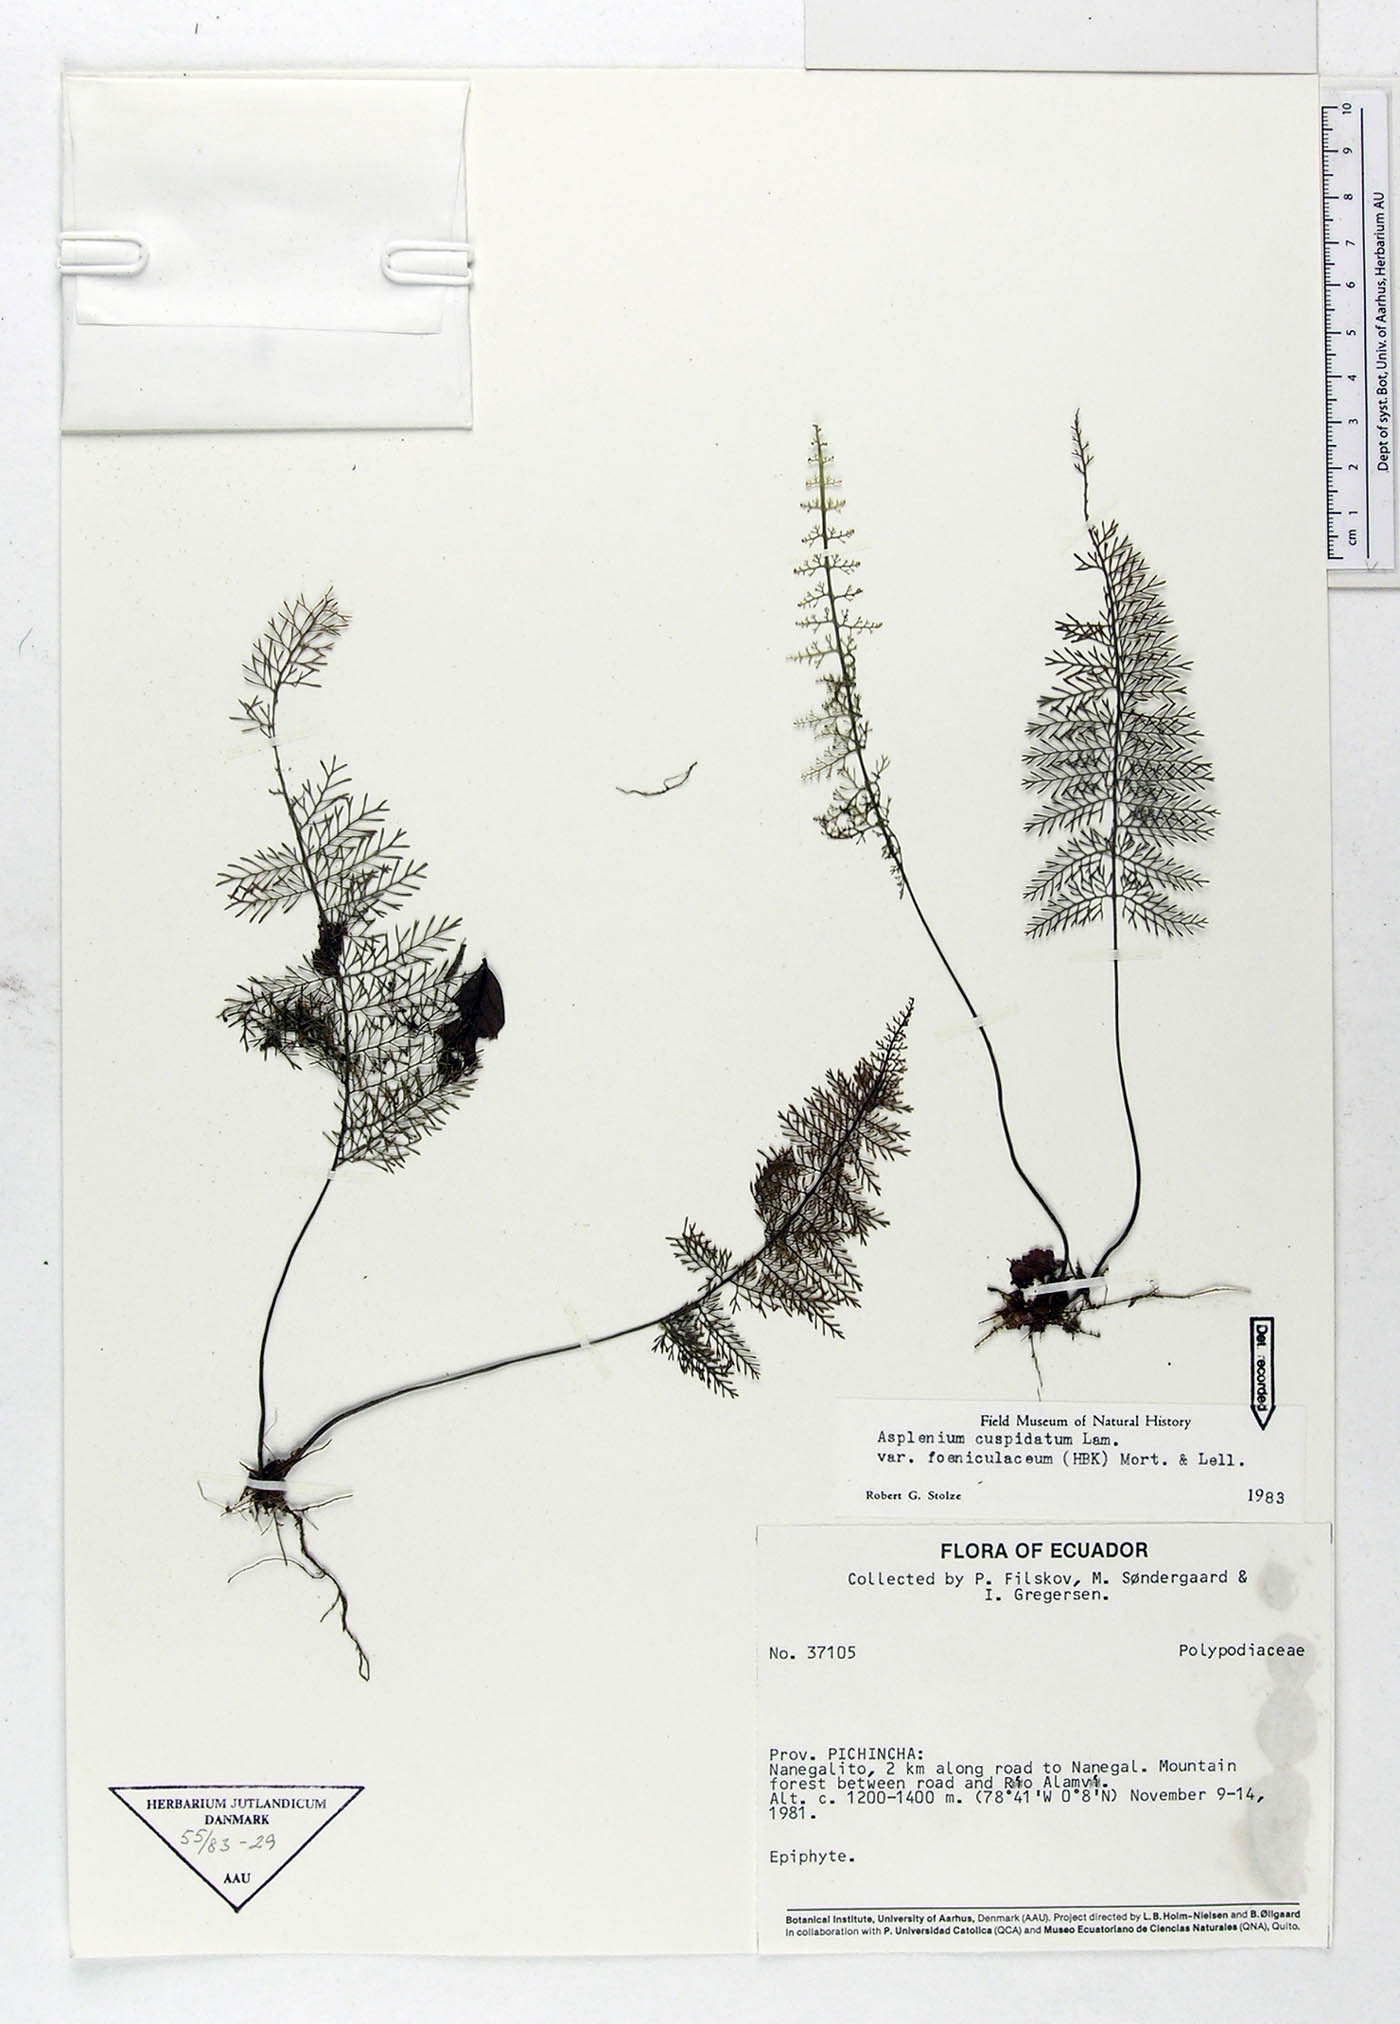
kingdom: Plantae
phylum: Tracheophyta
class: Polypodiopsida
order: Polypodiales
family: Aspleniaceae
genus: Asplenium
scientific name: Asplenium fragrans
